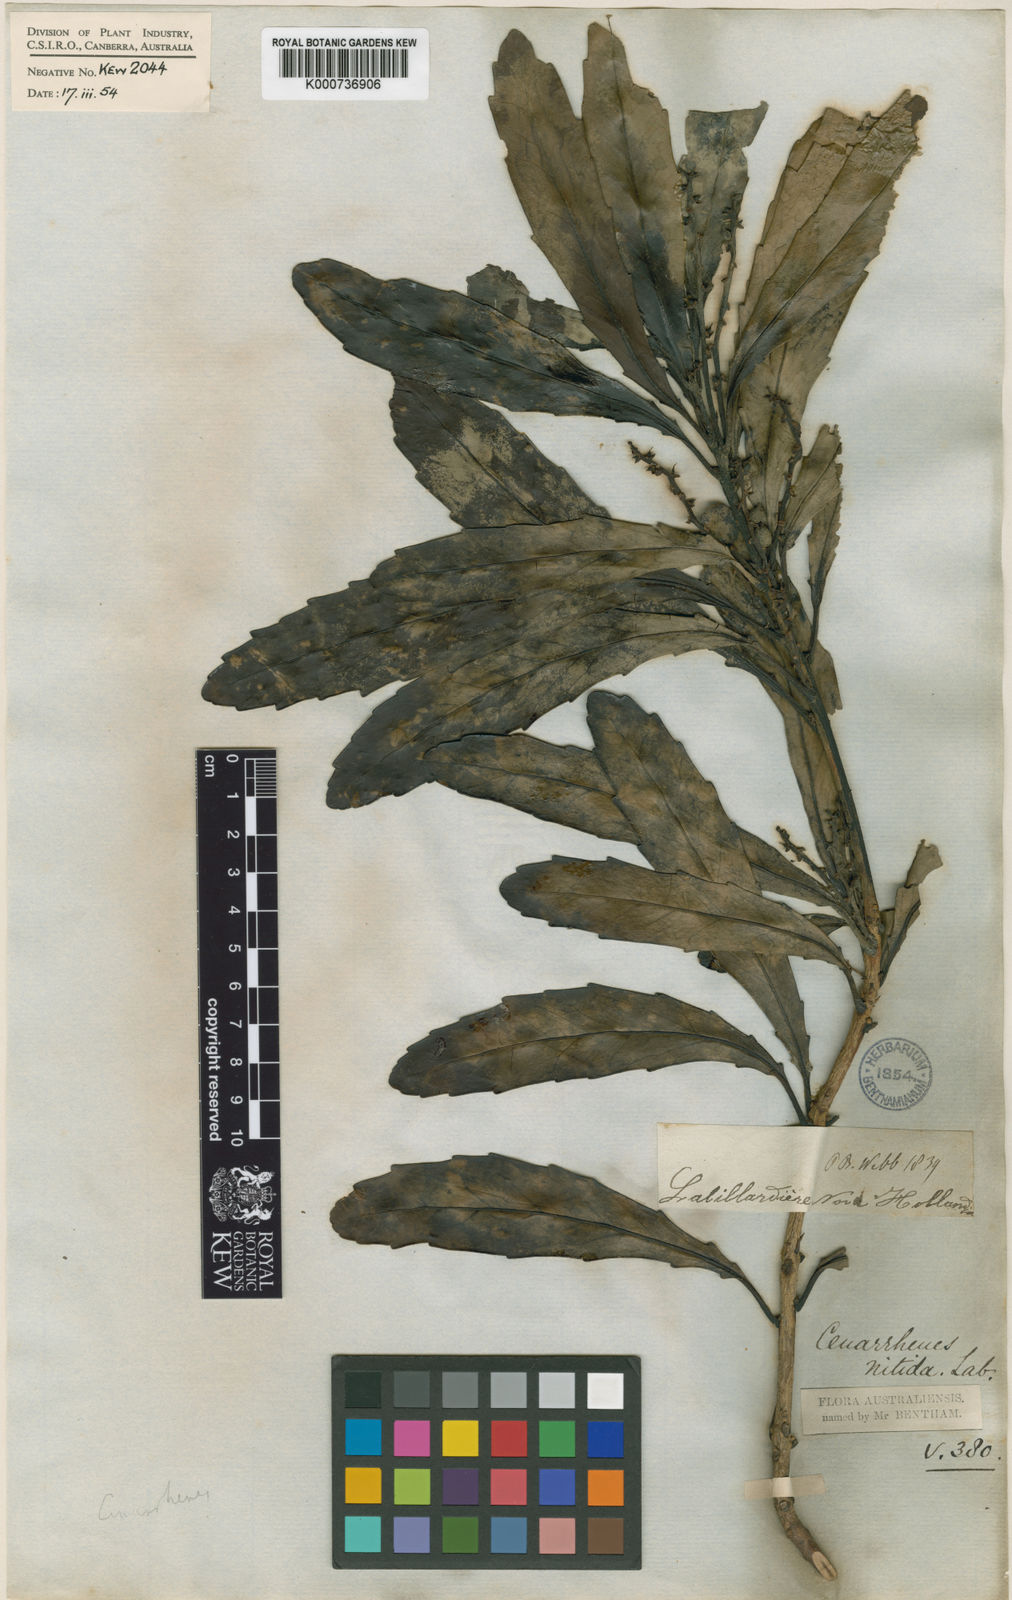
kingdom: Plantae
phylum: Tracheophyta
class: Magnoliopsida
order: Proteales
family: Proteaceae
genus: Cenarrhenes
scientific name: Cenarrhenes nitida
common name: Native plum
